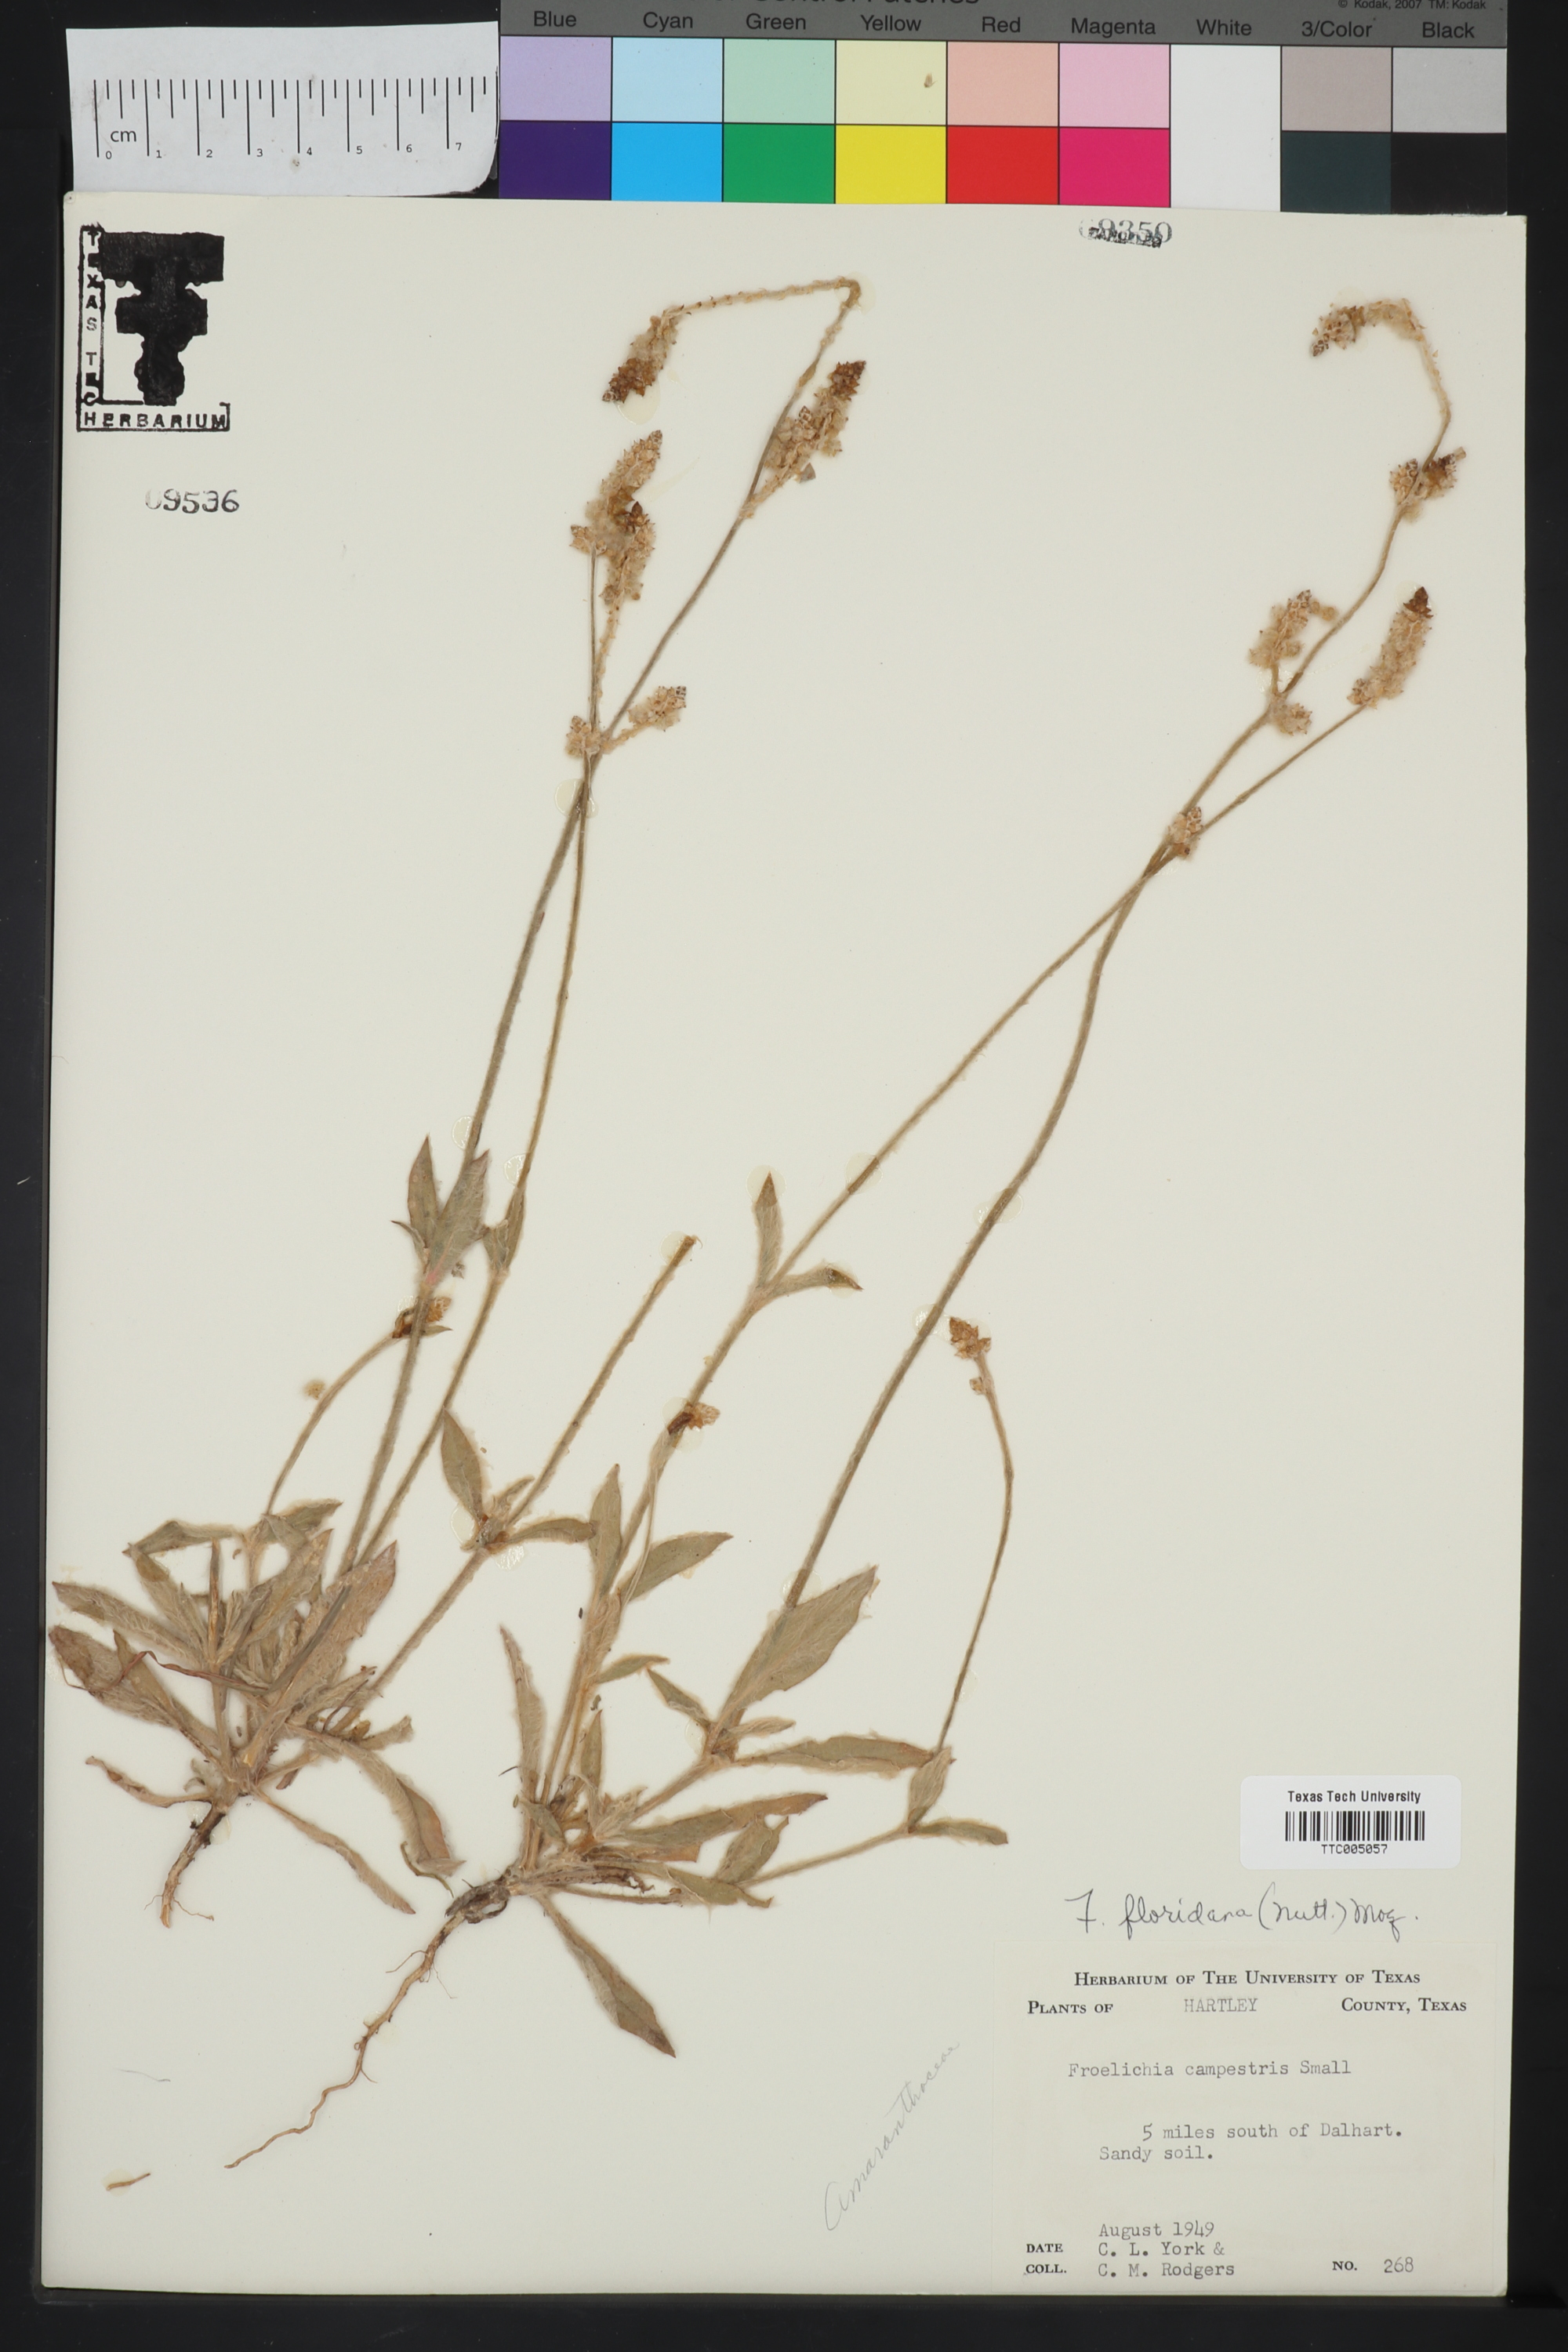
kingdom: Plantae
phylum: Tracheophyta
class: Magnoliopsida
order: Caryophyllales
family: Amaranthaceae
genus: Froelichia
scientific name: Froelichia floridana
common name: Florida snake-cotton
